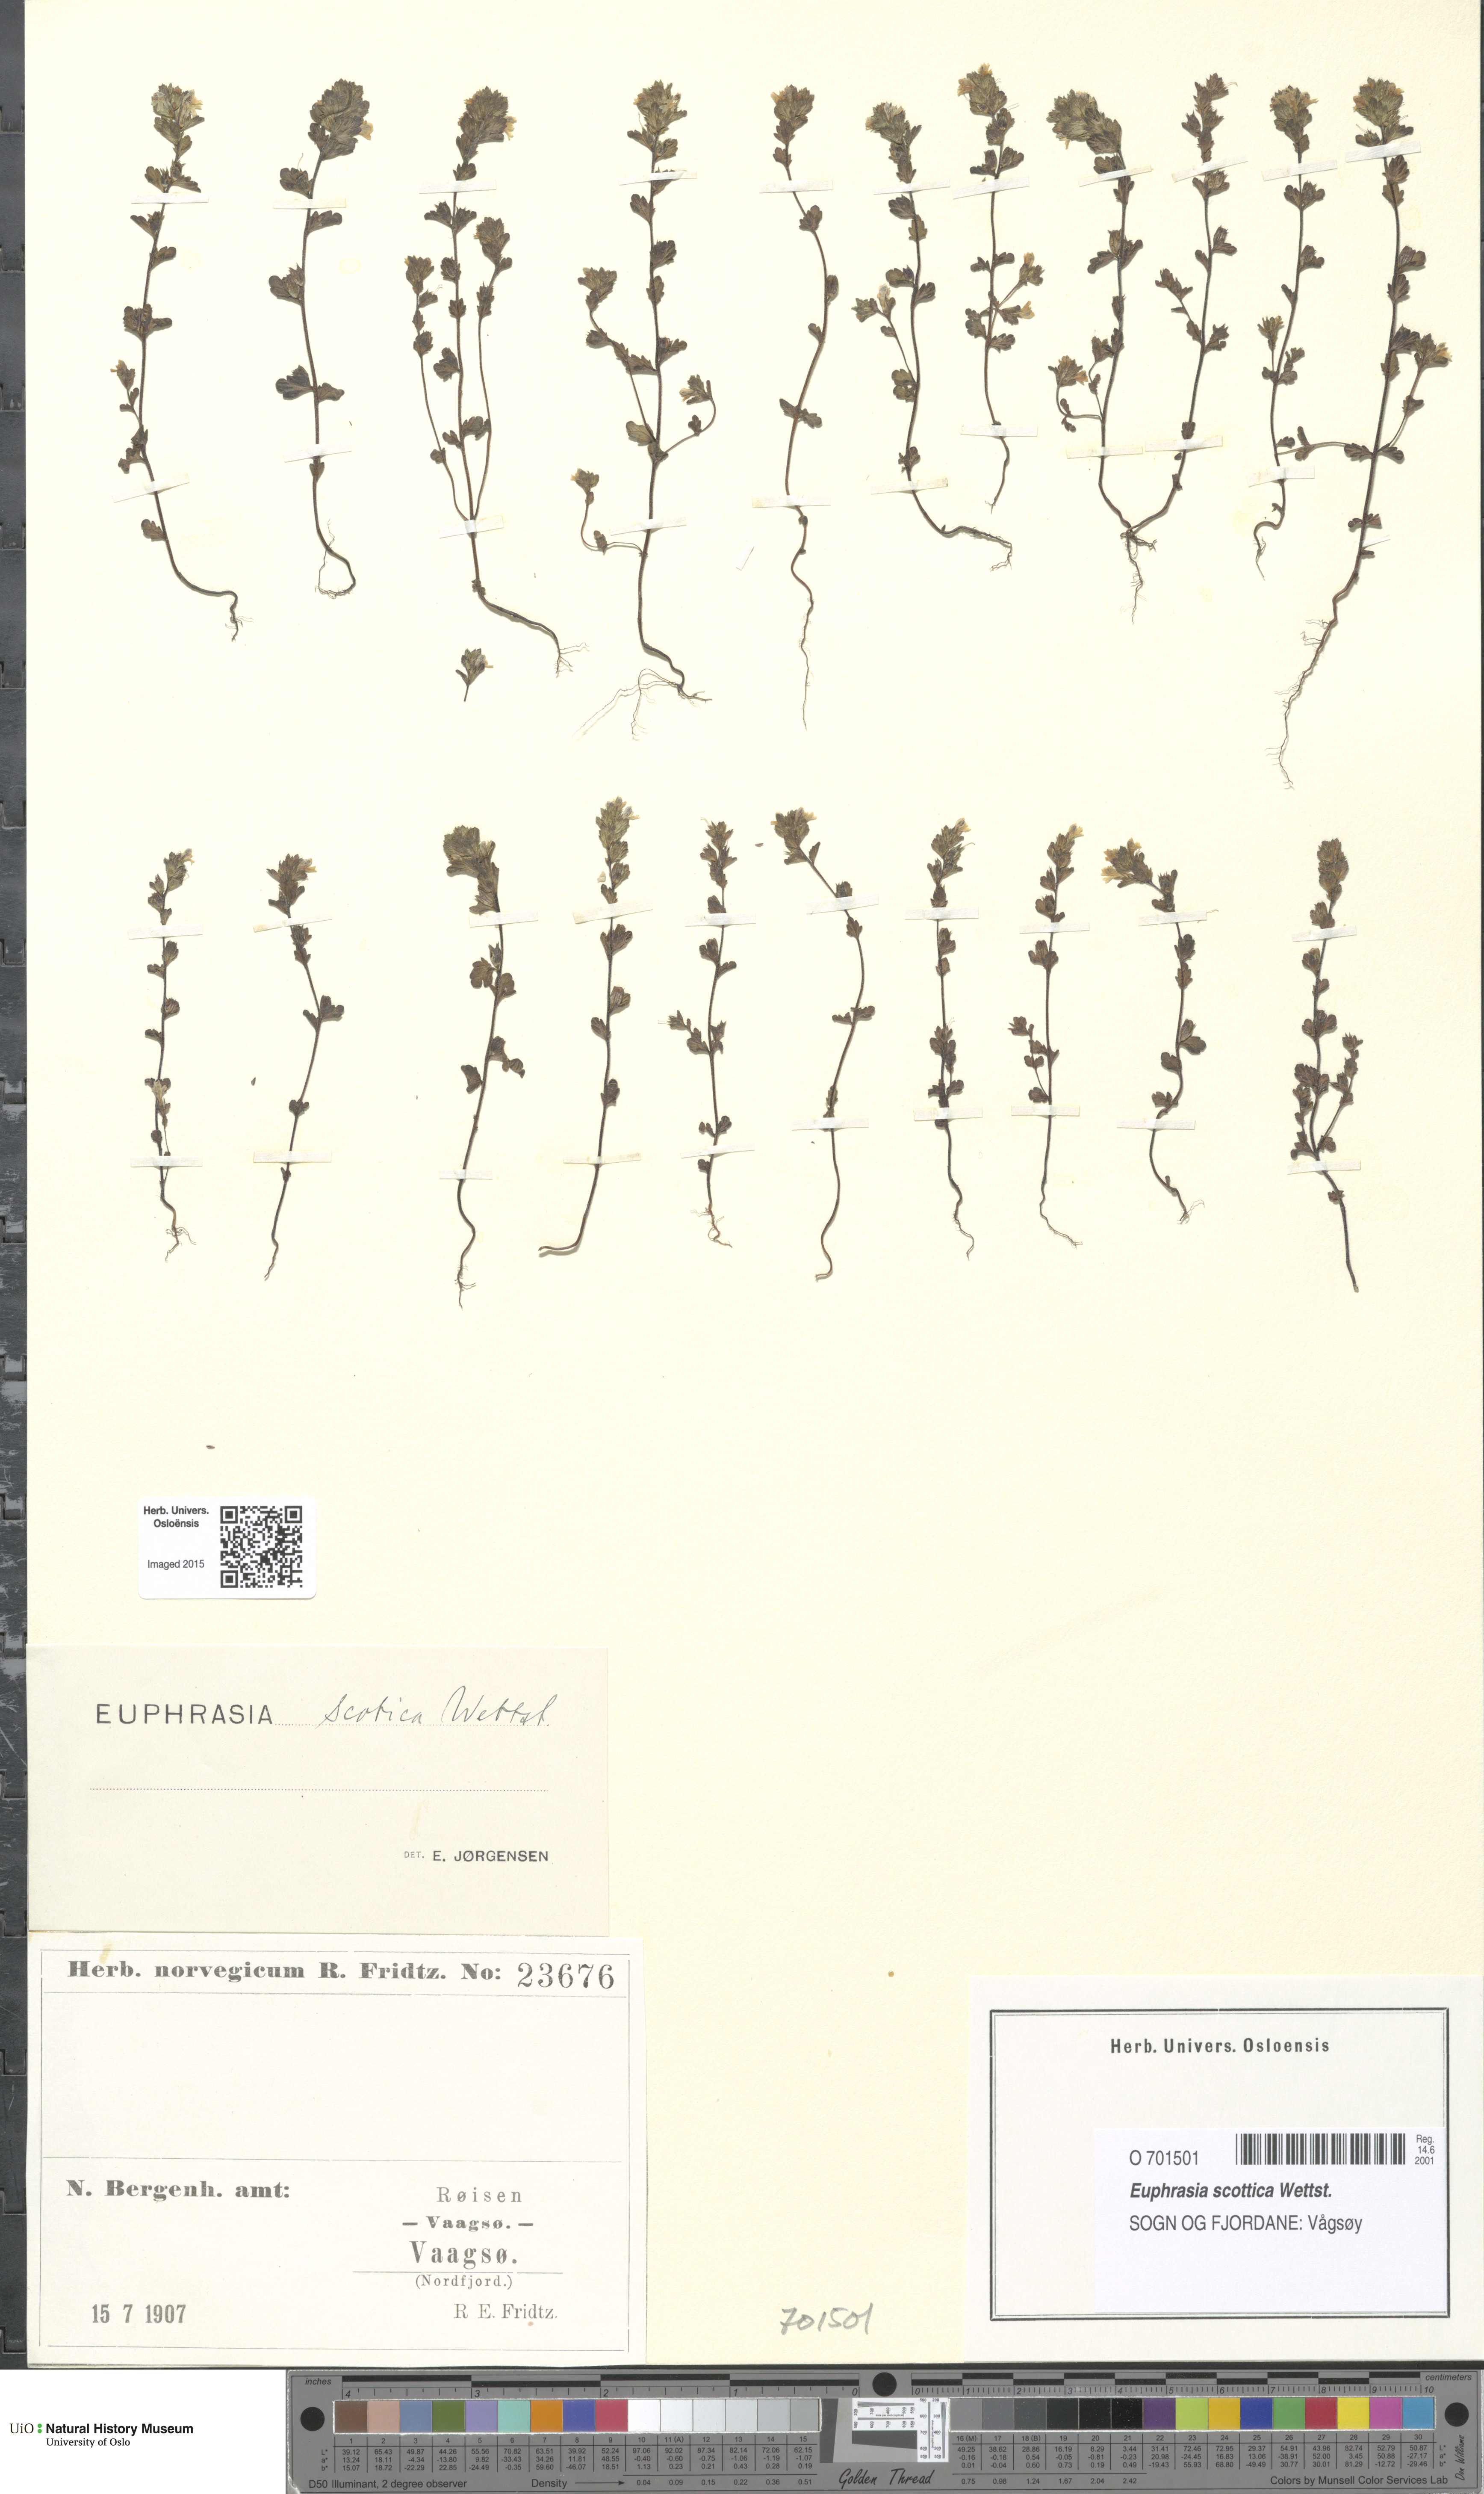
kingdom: Plantae
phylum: Tracheophyta
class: Magnoliopsida
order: Lamiales
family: Orobanchaceae
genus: Euphrasia
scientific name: Euphrasia scottica
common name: Slender scottish eyebright
